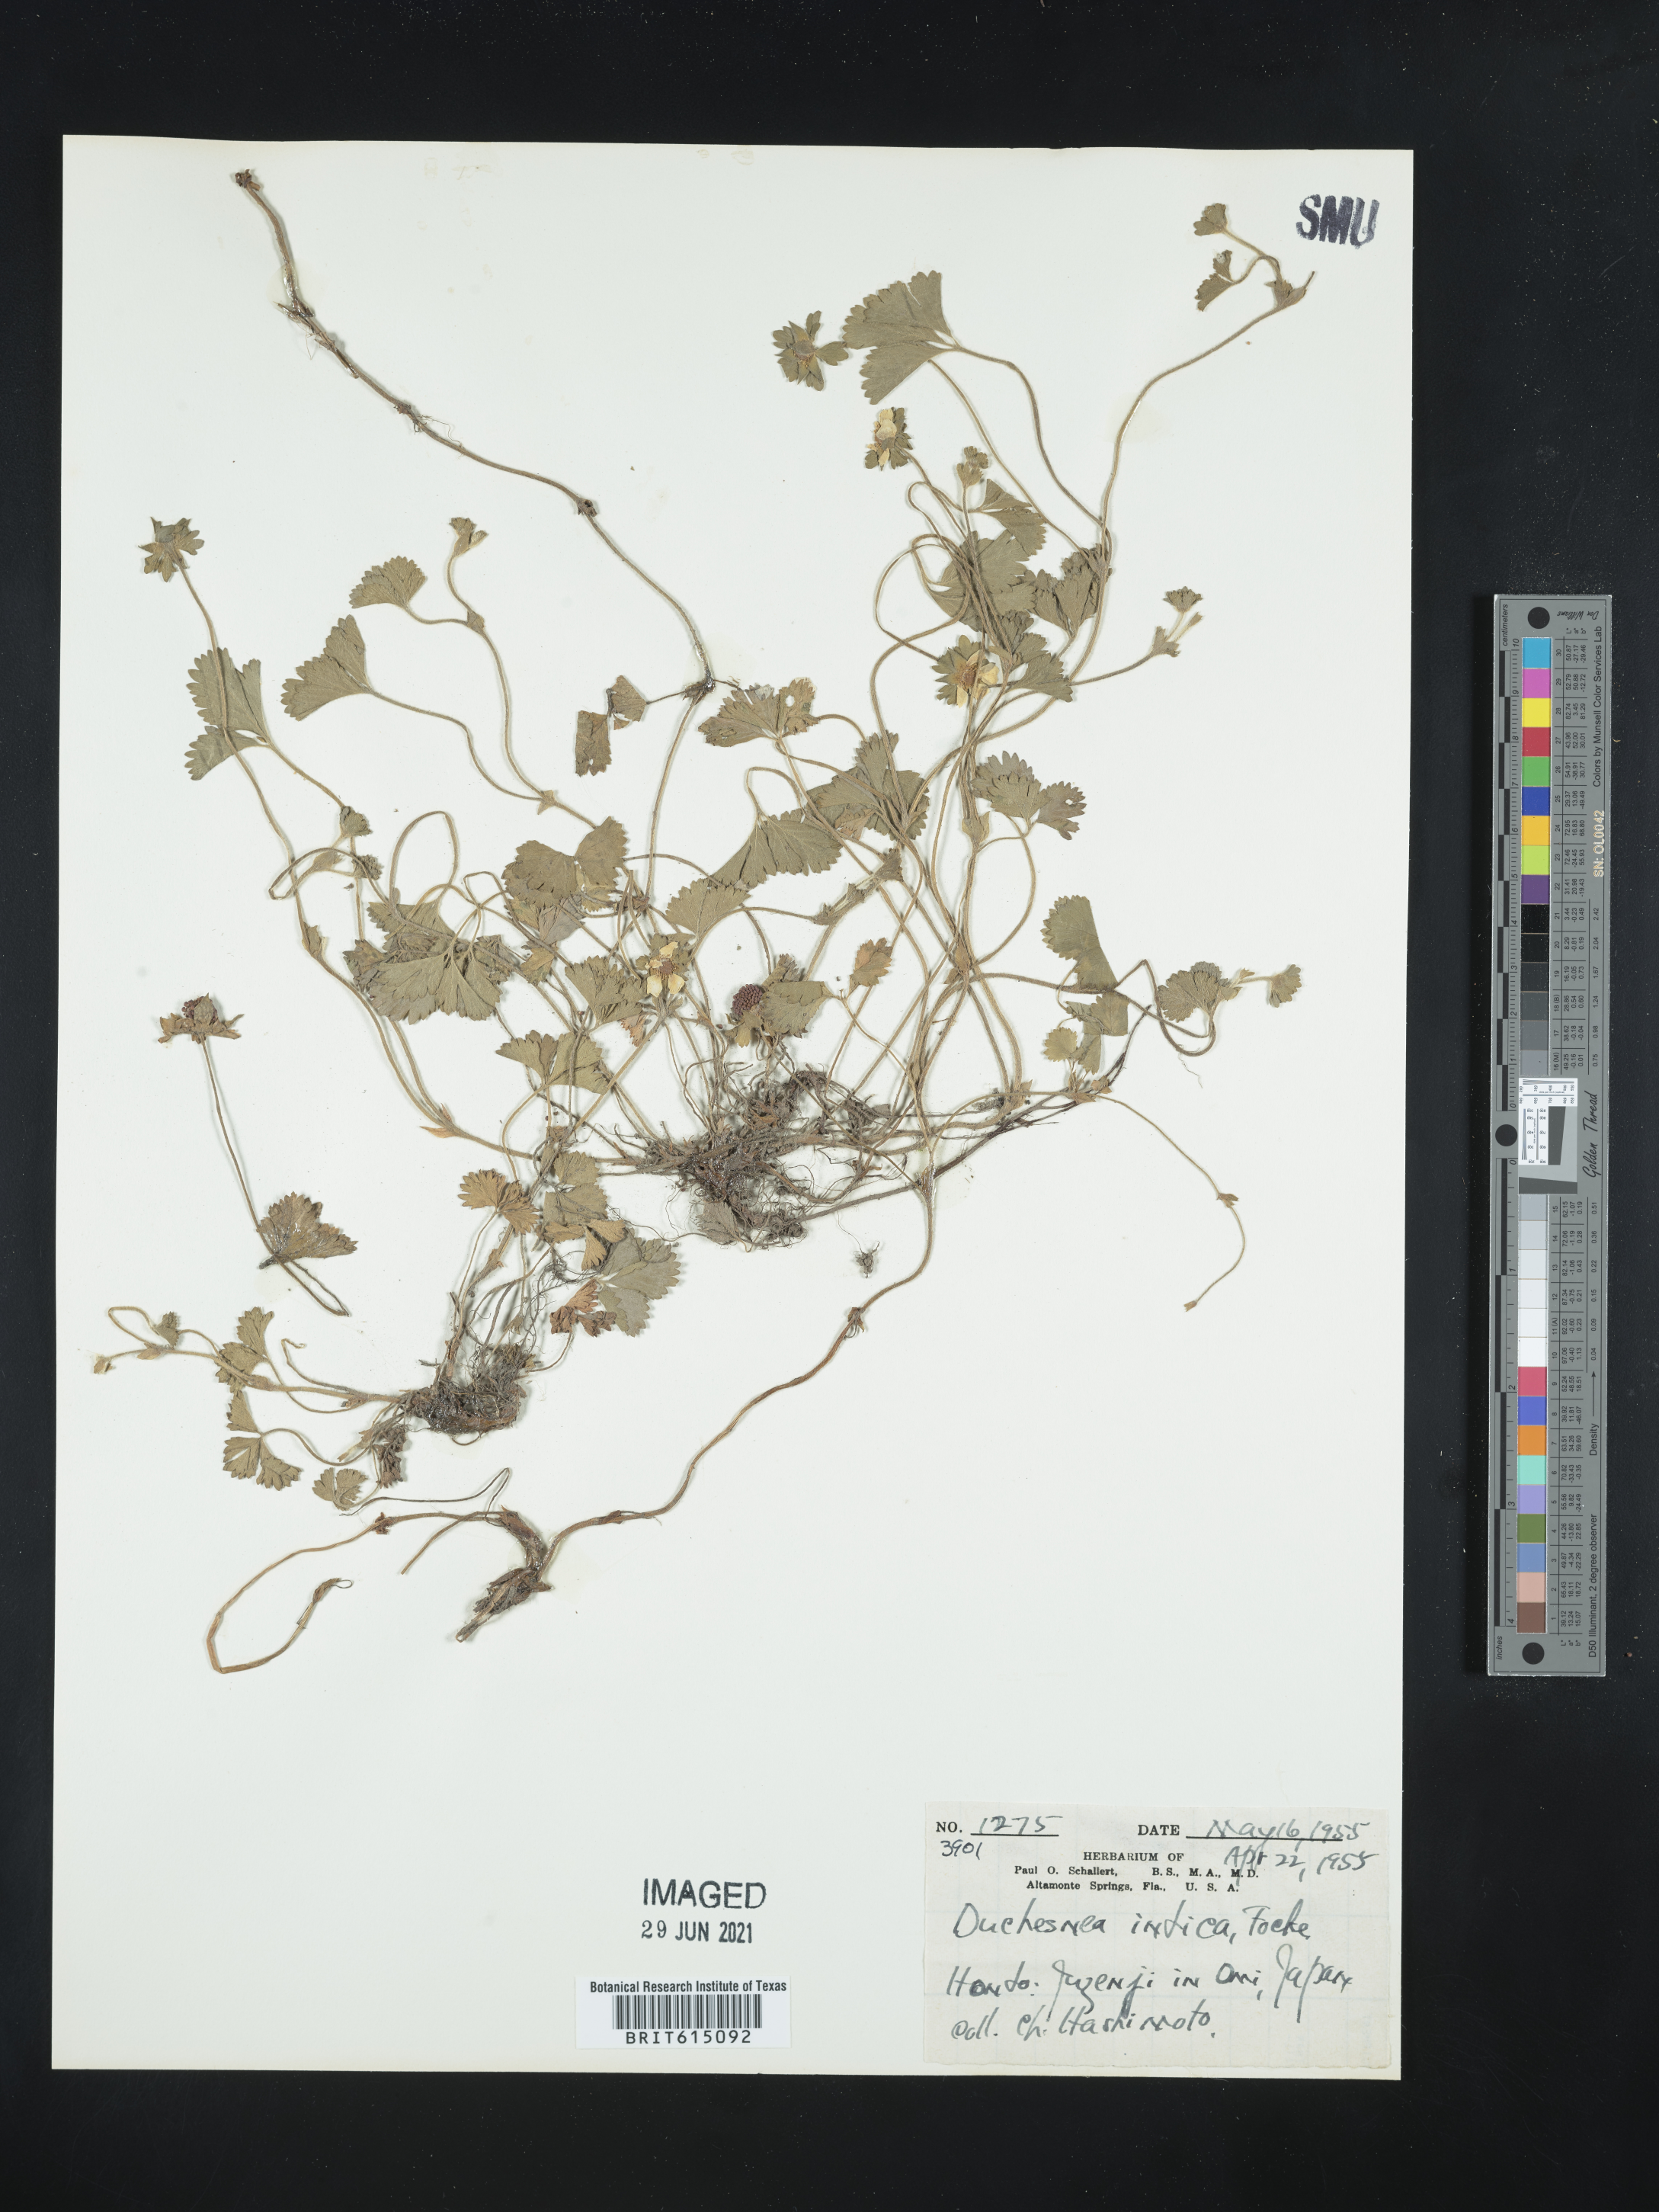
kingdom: Plantae
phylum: Tracheophyta
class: Magnoliopsida
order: Rosales
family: Rosaceae
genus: Potentilla
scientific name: Potentilla indica
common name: Yellow-flowered strawberry
